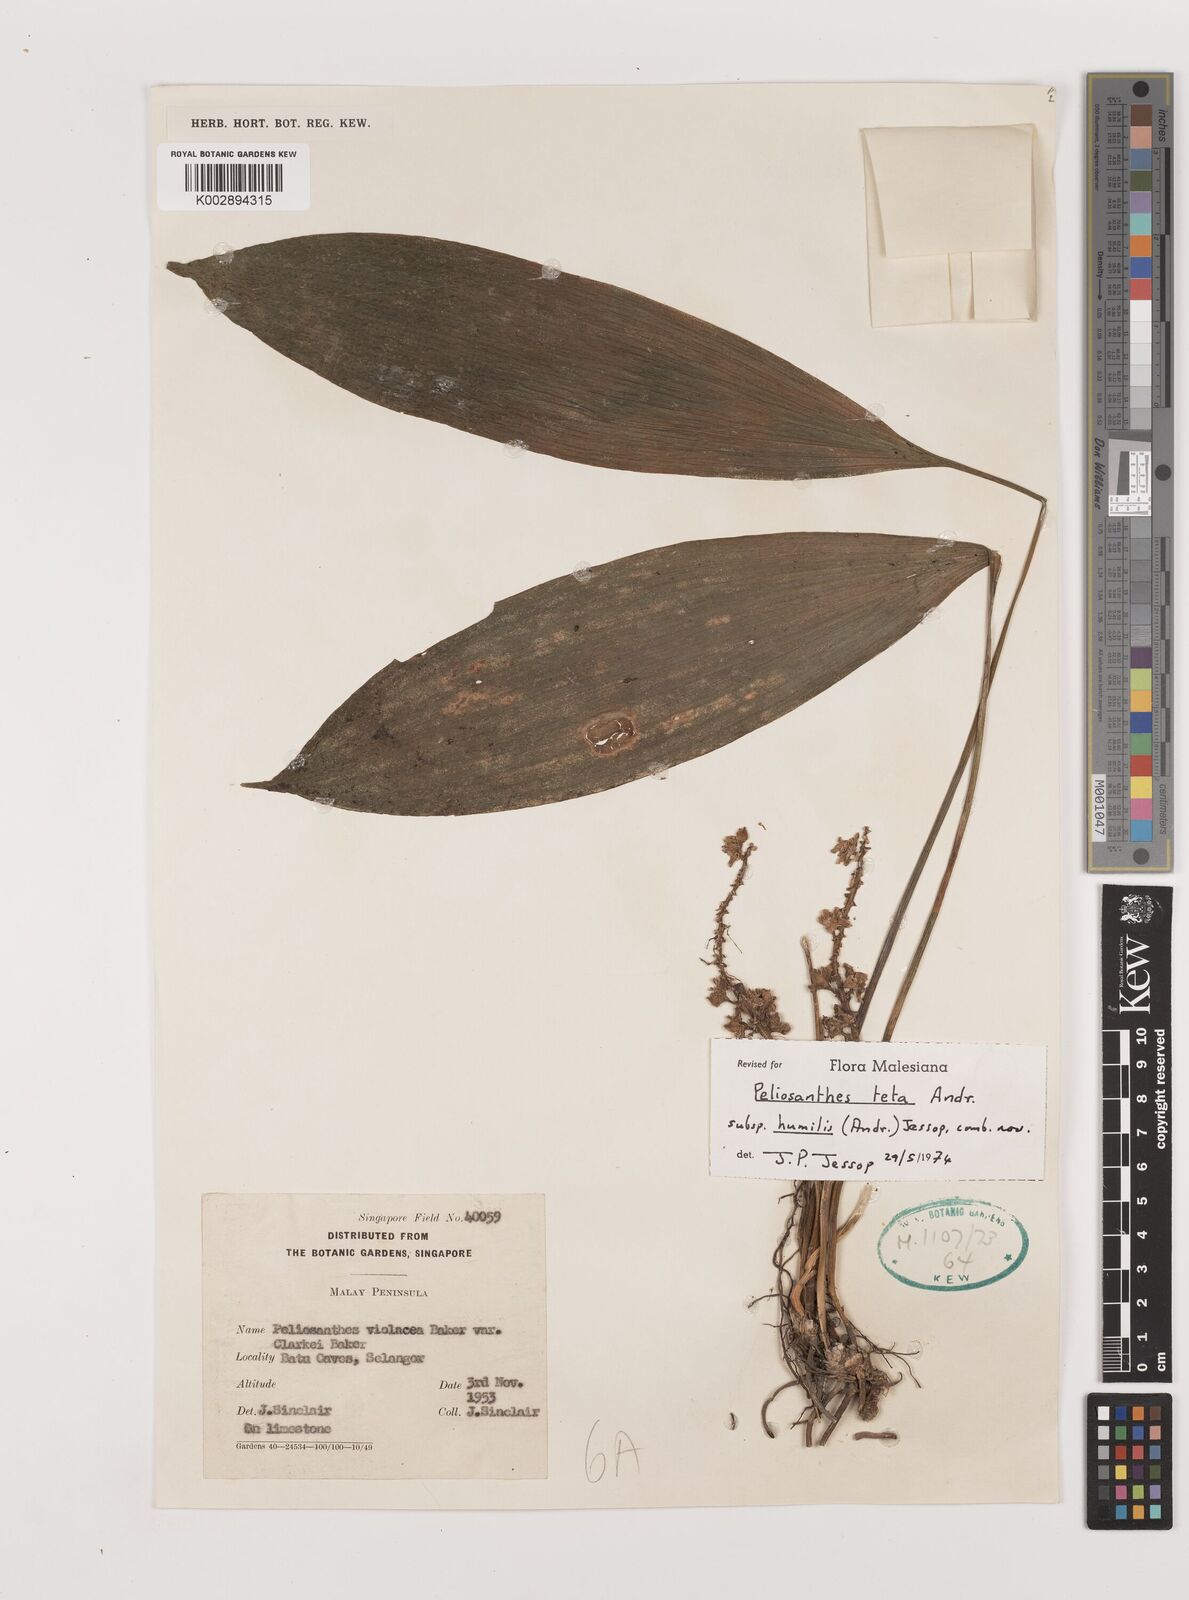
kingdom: Plantae
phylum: Tracheophyta
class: Liliopsida
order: Asparagales
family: Asparagaceae
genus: Peliosanthes
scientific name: Peliosanthes teta
